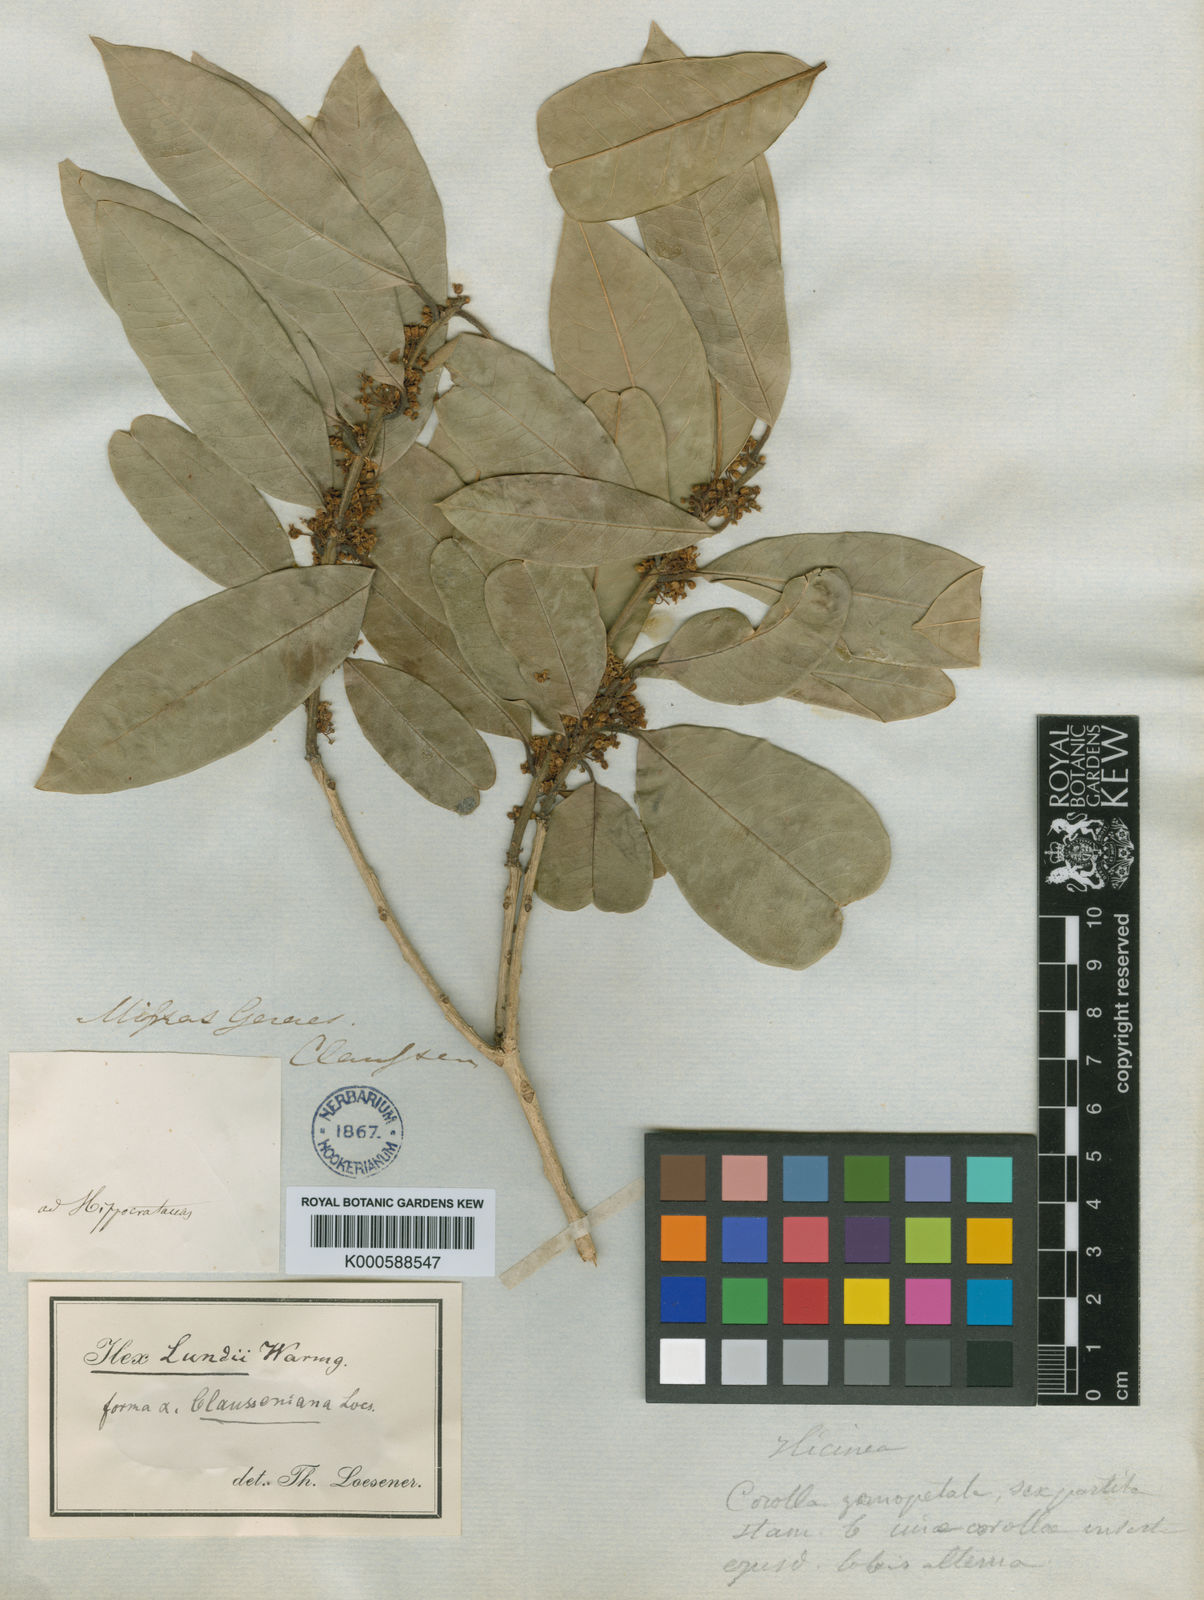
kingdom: Plantae
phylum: Tracheophyta
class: Magnoliopsida
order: Aquifoliales
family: Aquifoliaceae
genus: Ilex
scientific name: Ilex lundii
